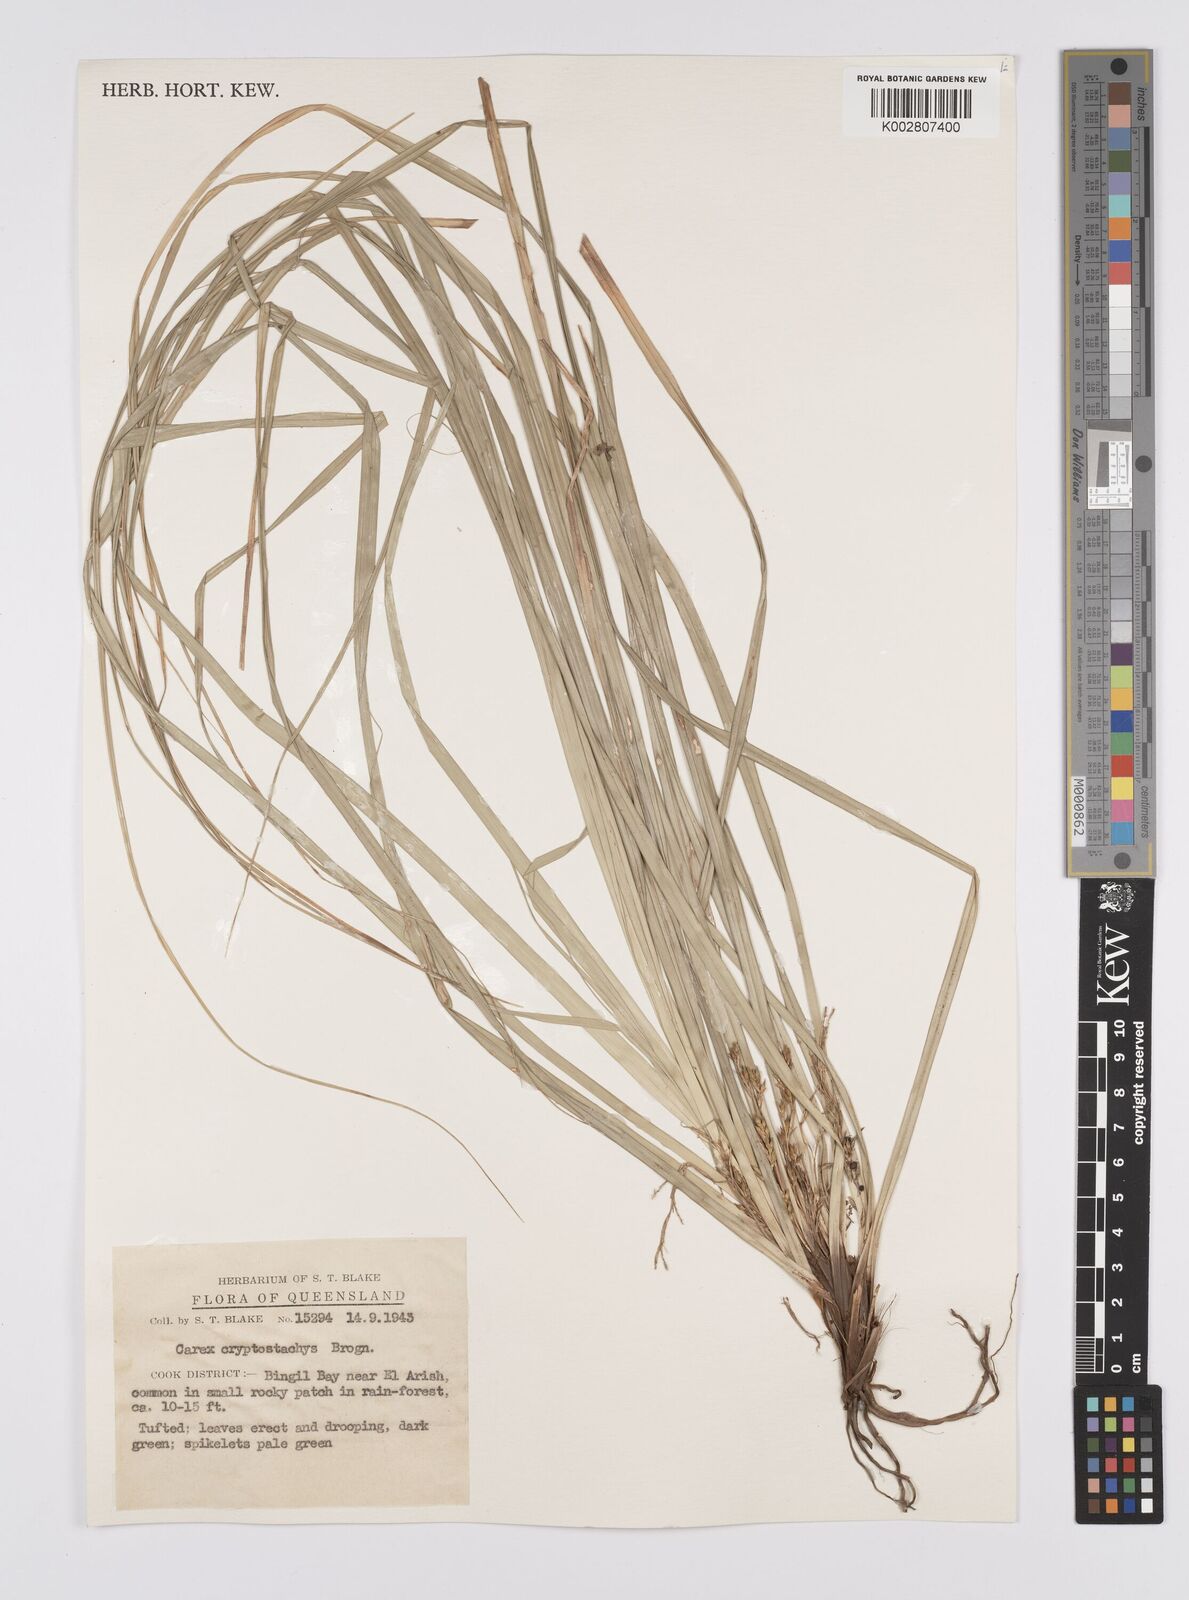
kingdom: Plantae
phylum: Tracheophyta
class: Liliopsida
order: Poales
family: Cyperaceae
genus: Carex
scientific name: Carex cryptostachys
